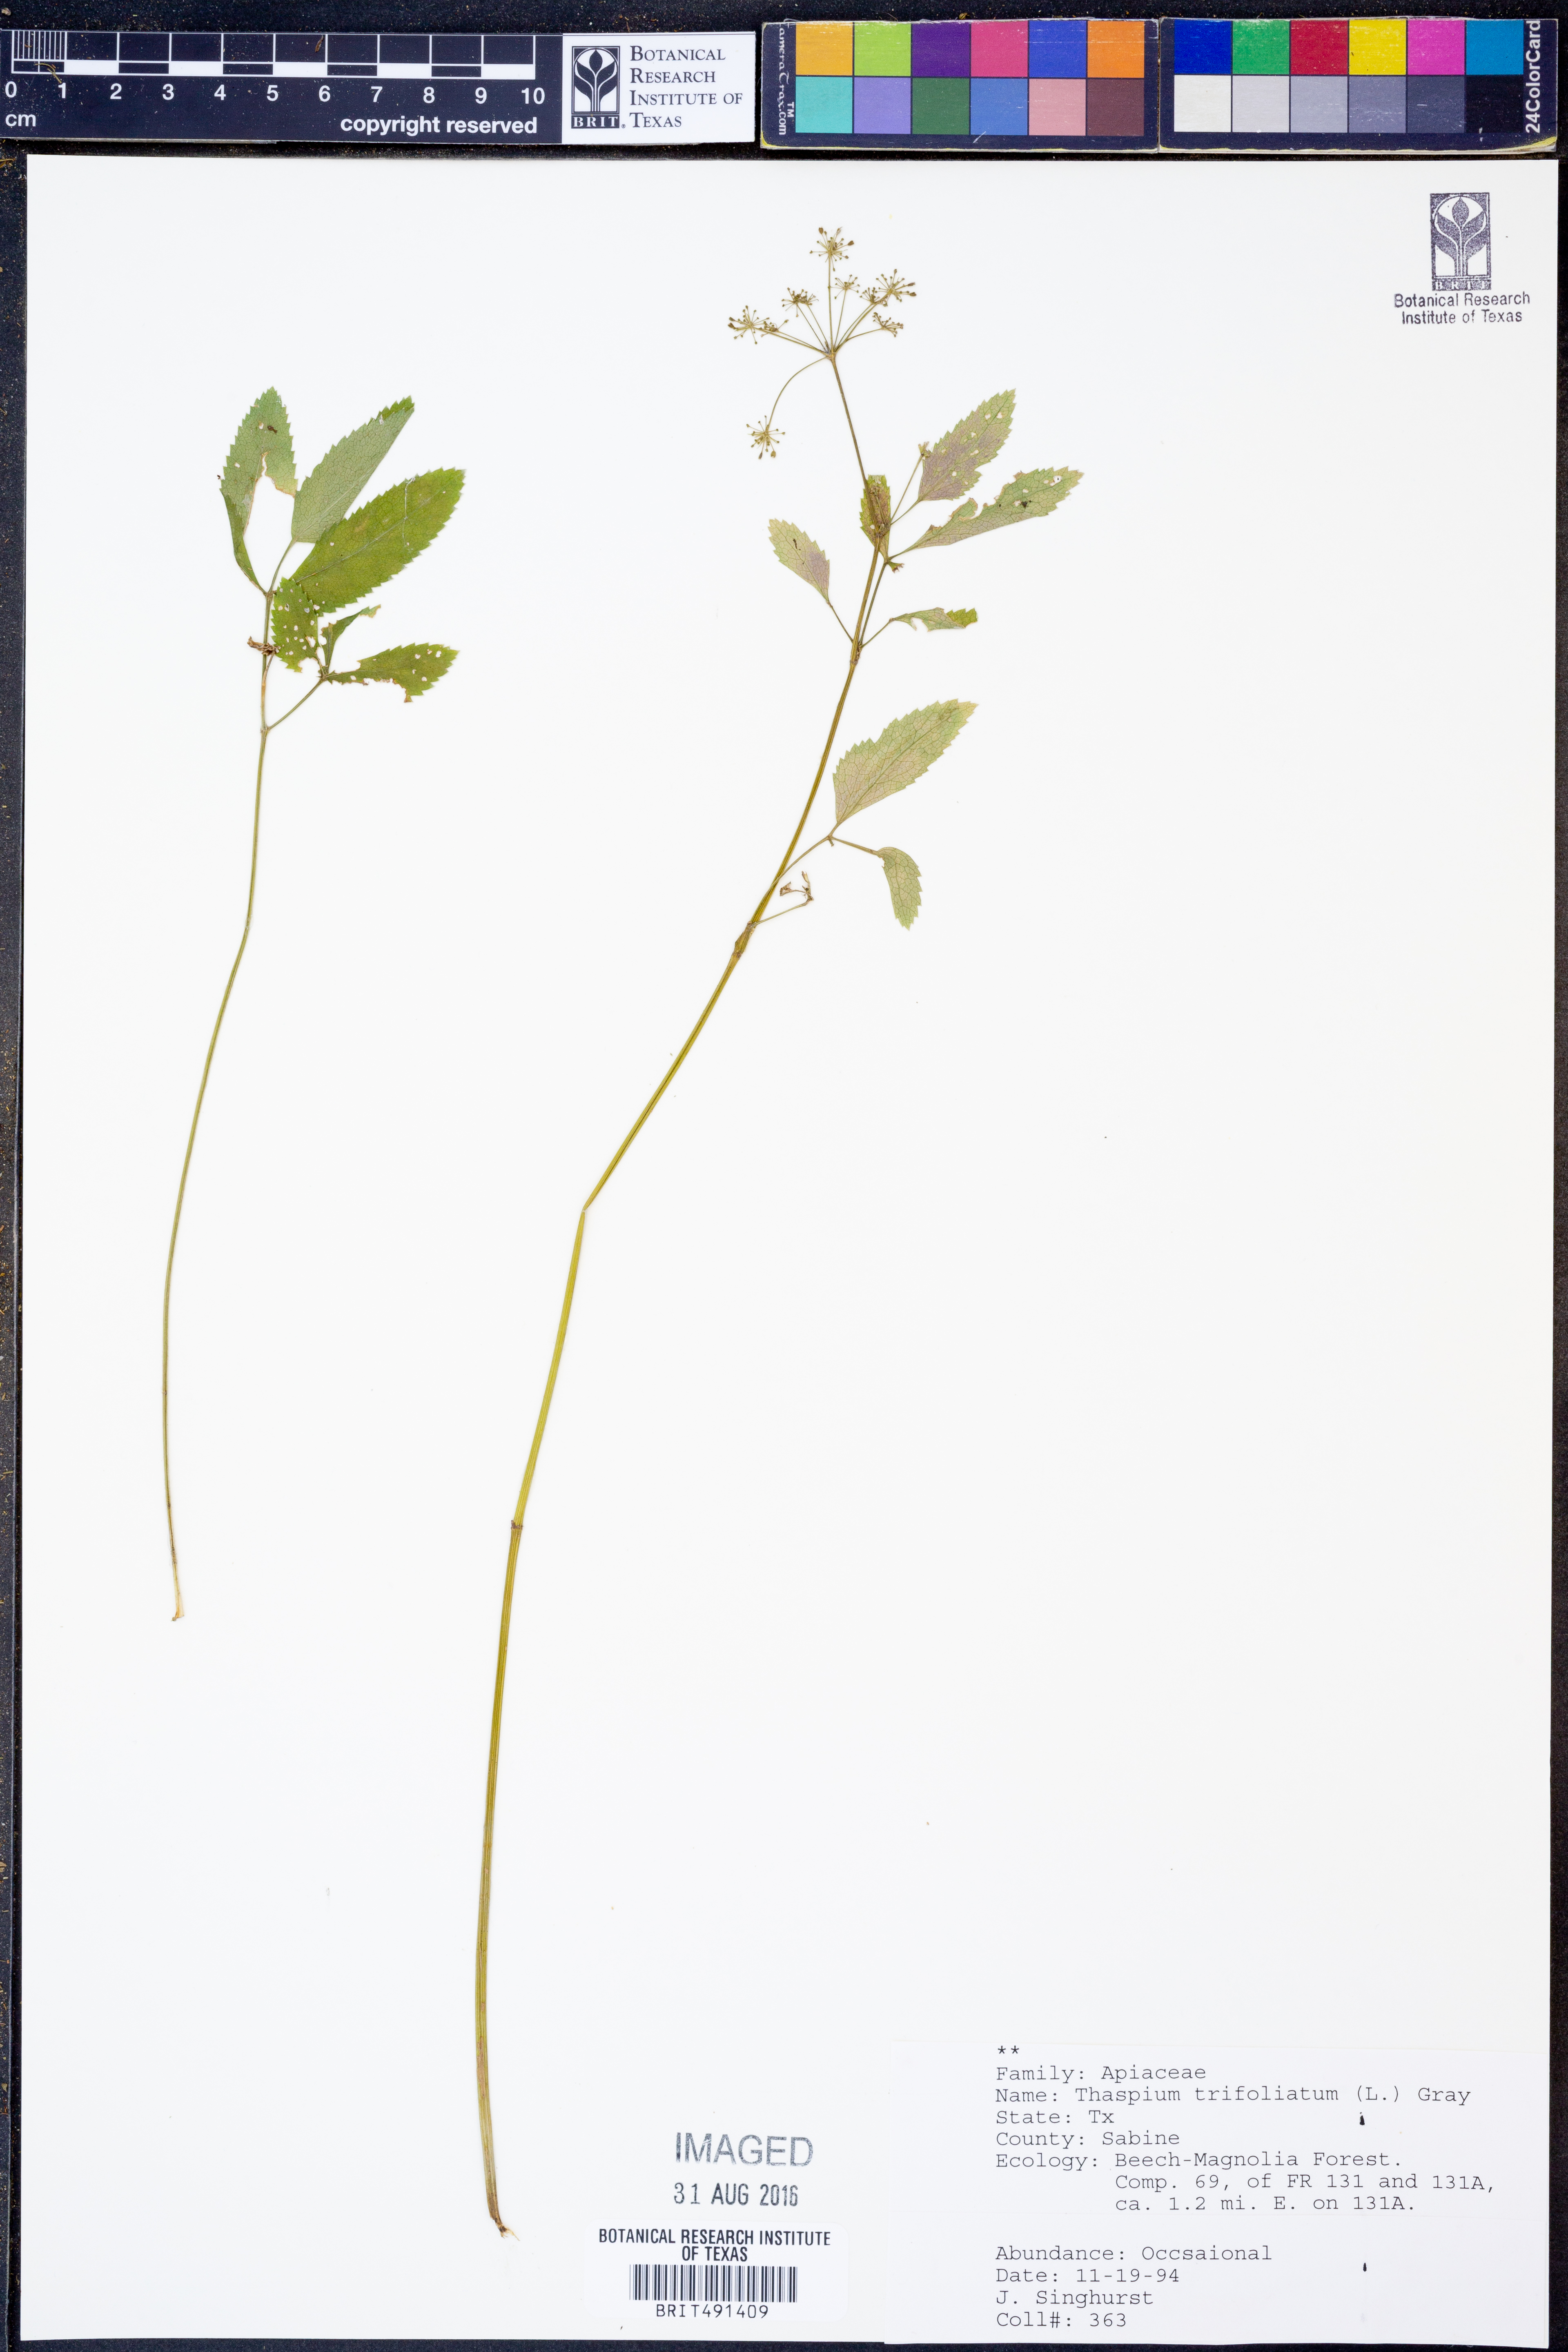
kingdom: Plantae
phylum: Tracheophyta
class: Magnoliopsida
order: Apiales
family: Apiaceae
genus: Thaspium
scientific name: Thaspium trifoliatum
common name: Purple meadow-parsnip
